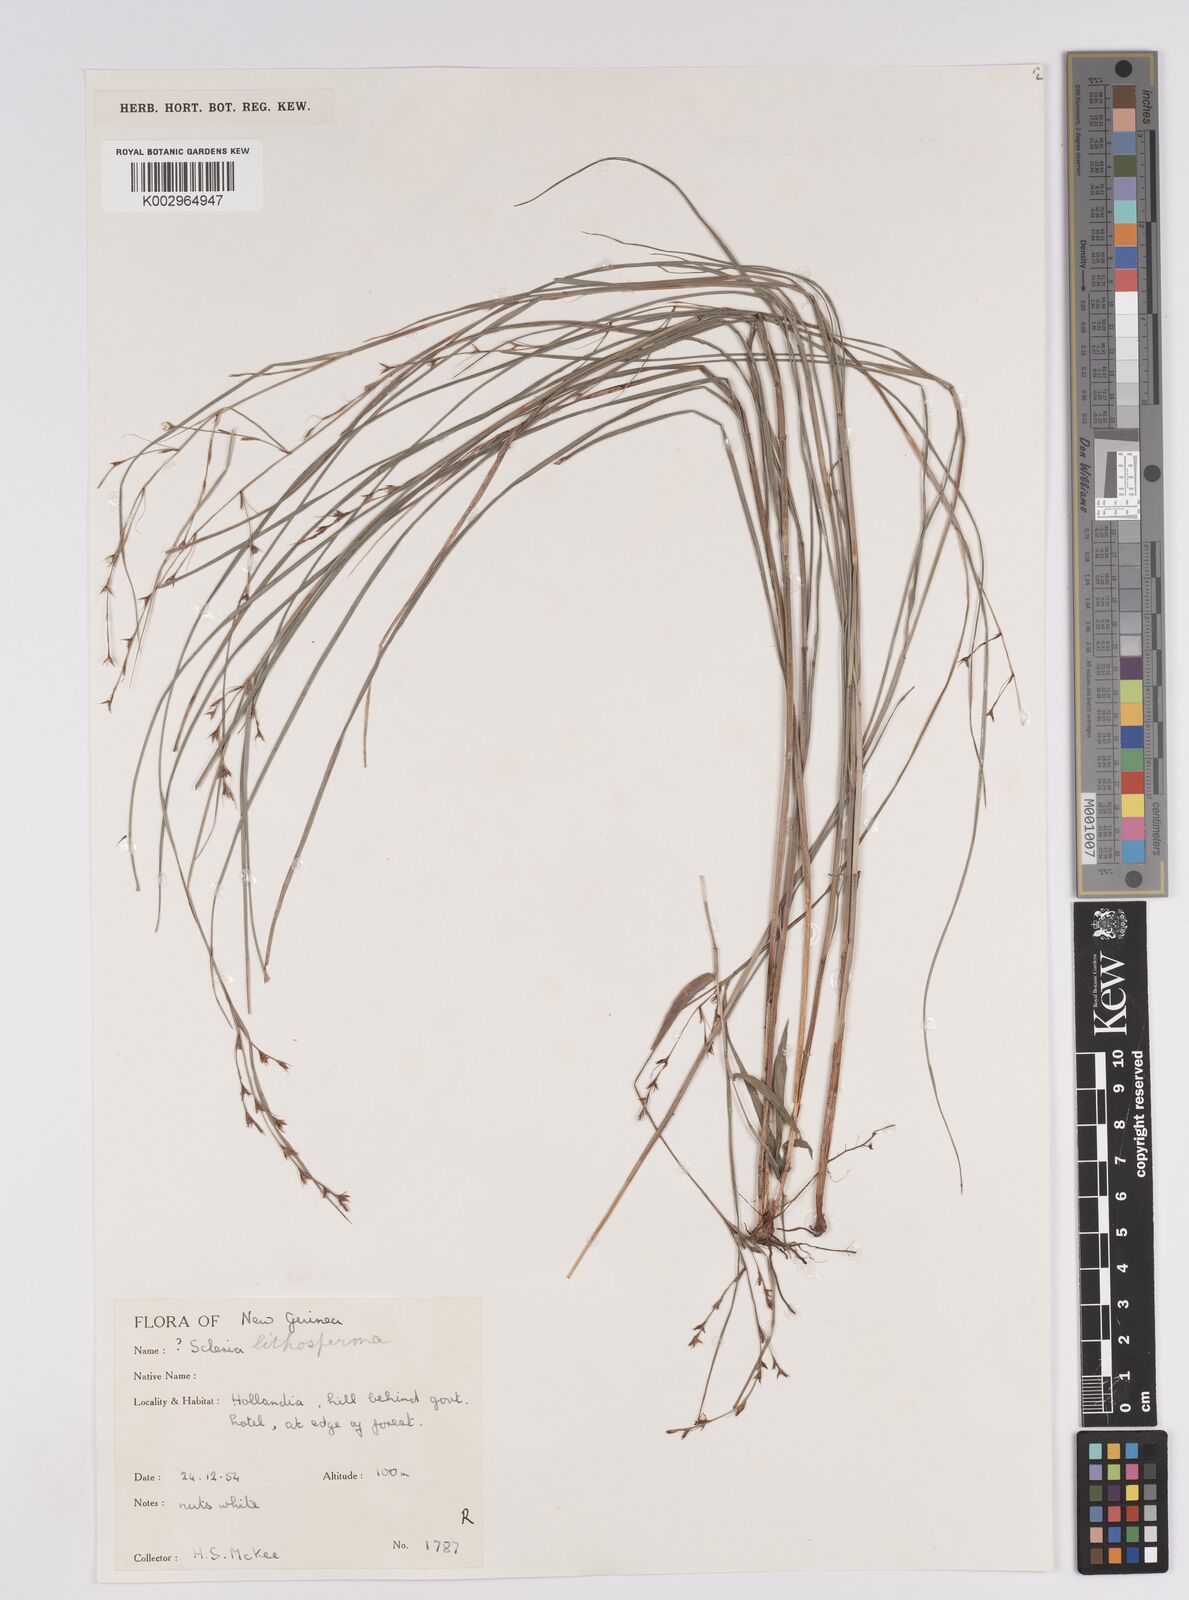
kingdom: Plantae
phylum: Tracheophyta
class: Liliopsida
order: Poales
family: Cyperaceae
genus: Scleria
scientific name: Scleria lithosperma
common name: Florida keys nut-rush
